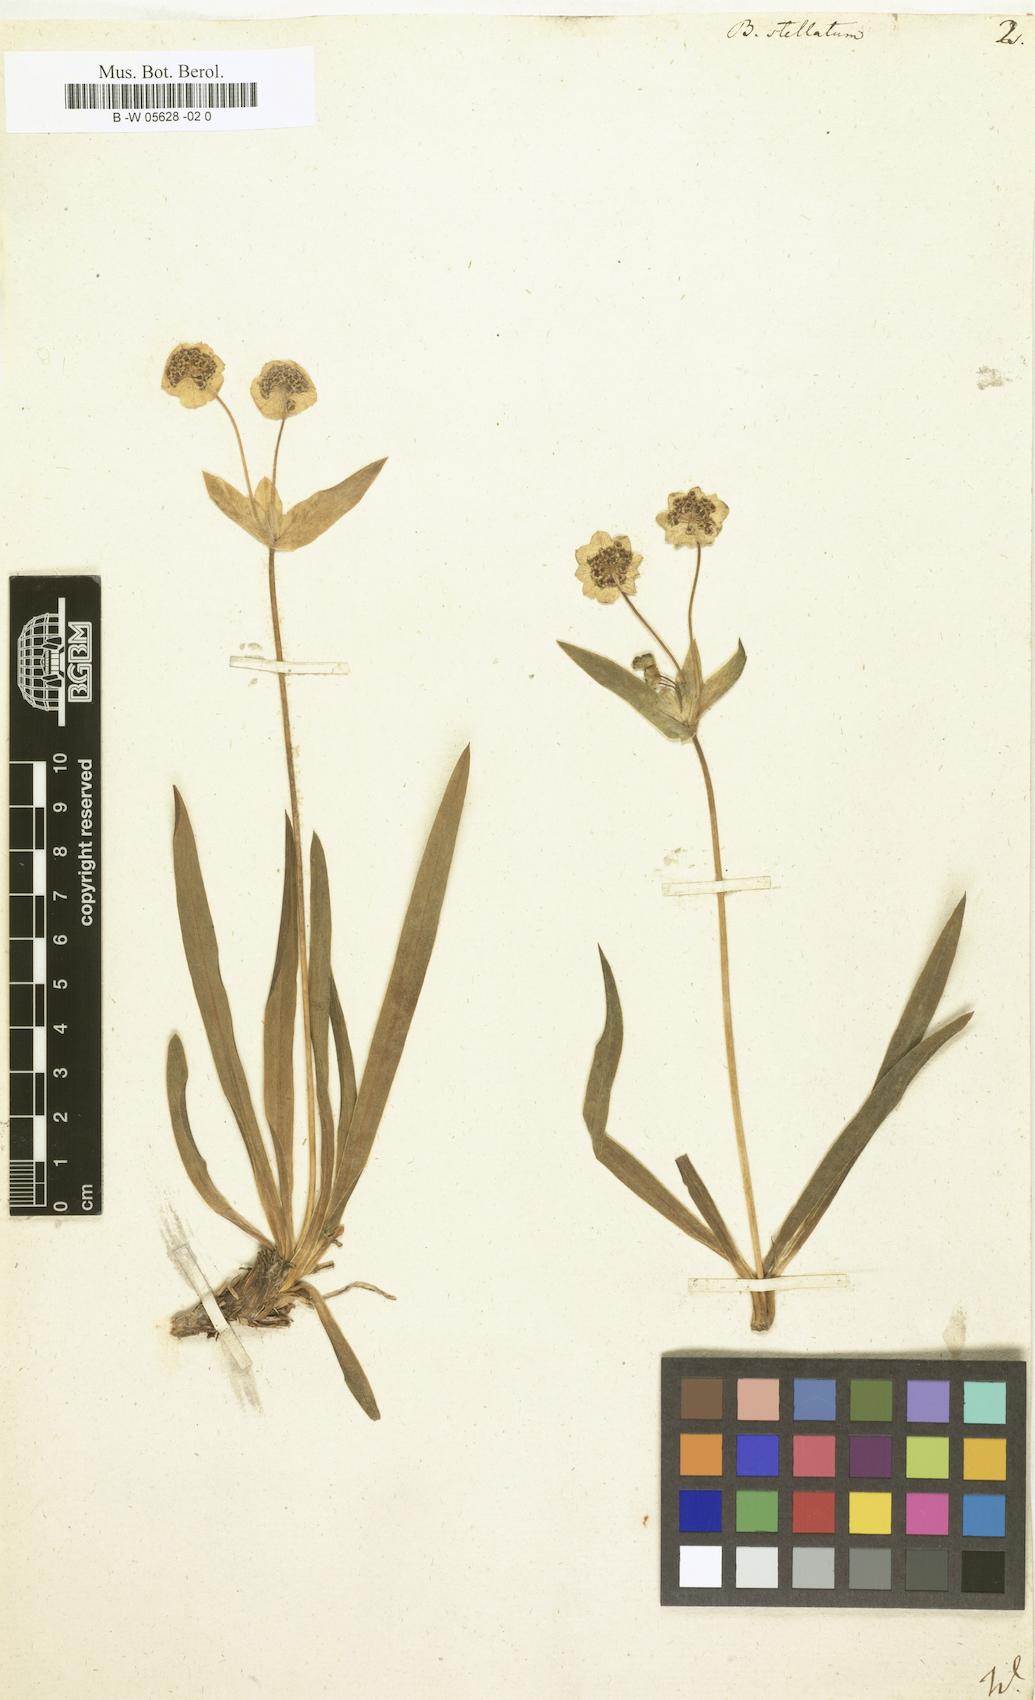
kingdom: Plantae
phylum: Tracheophyta
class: Magnoliopsida
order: Apiales
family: Apiaceae
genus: Bupleurum
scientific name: Bupleurum stellatum
